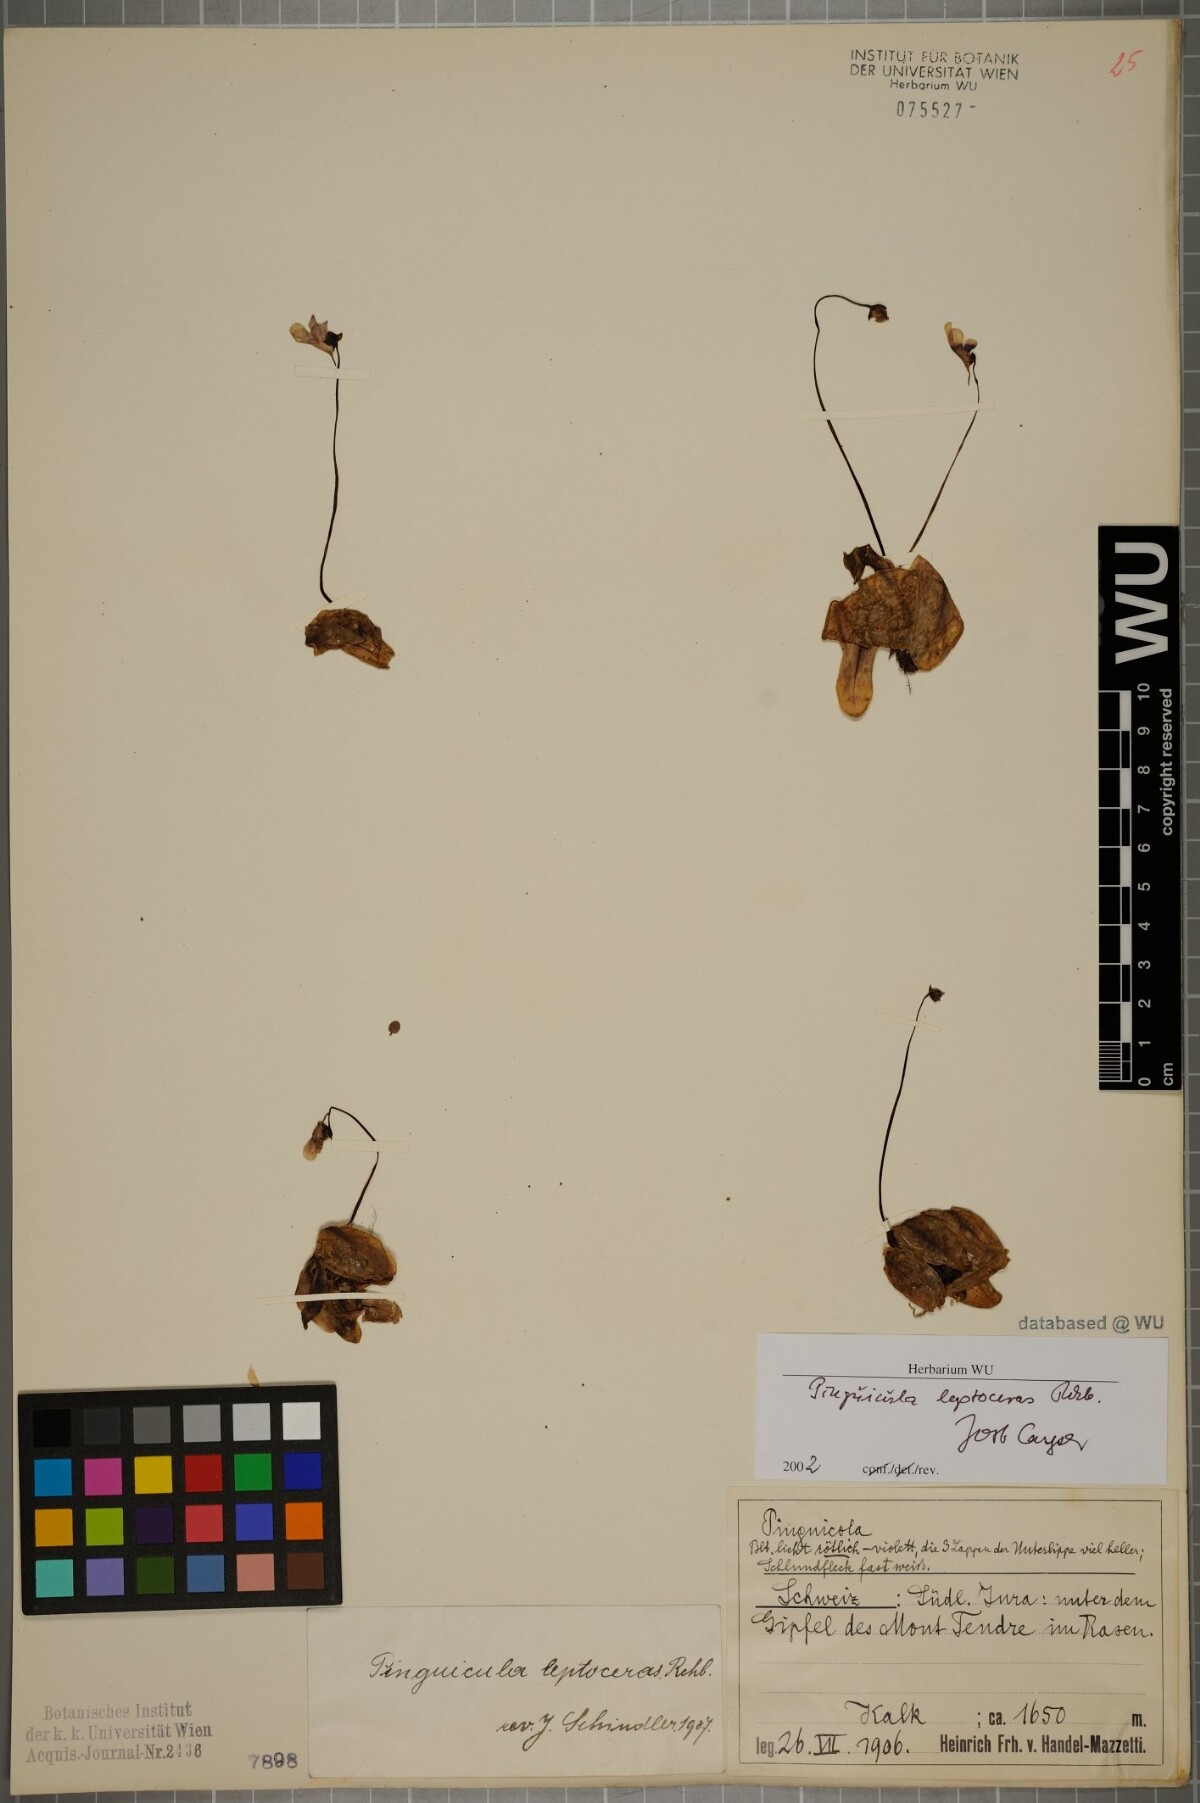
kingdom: Plantae
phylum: Tracheophyta
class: Magnoliopsida
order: Lamiales
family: Lentibulariaceae
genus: Pinguicula
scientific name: Pinguicula leptoceras
